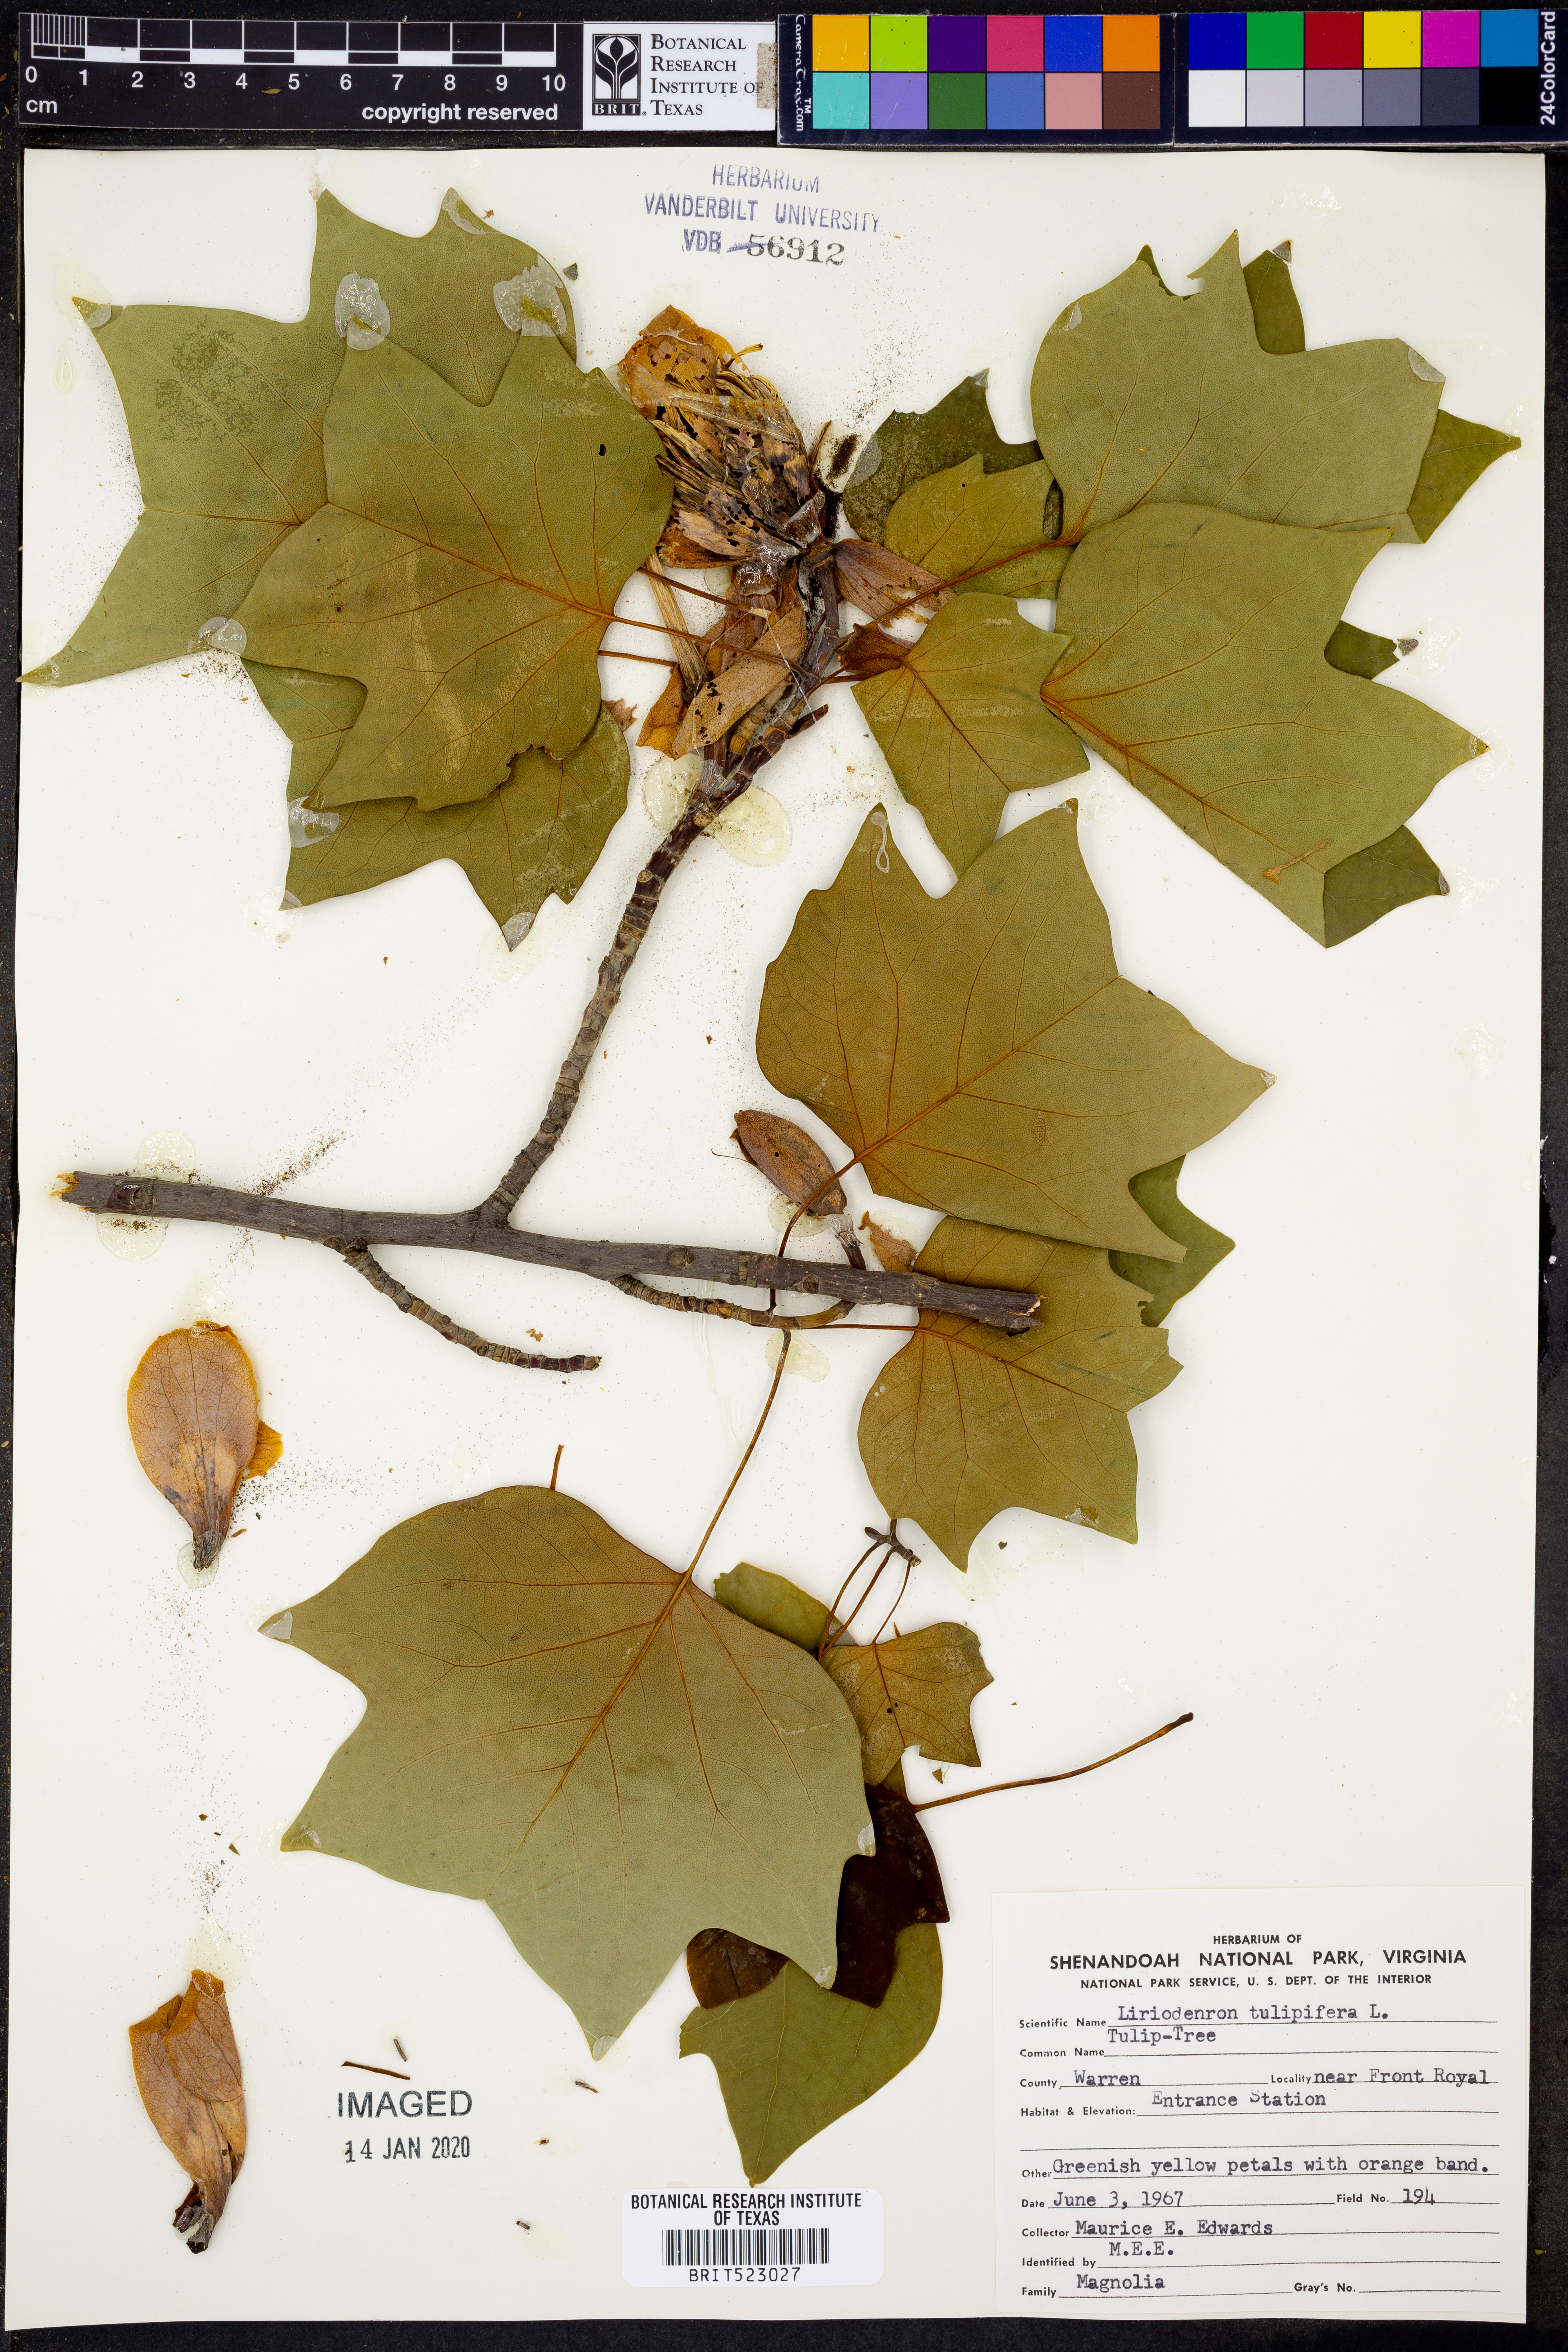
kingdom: Plantae
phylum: Tracheophyta
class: Magnoliopsida
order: Magnoliales
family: Magnoliaceae
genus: Liriodendron
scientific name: Liriodendron tulipifera
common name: Tulip tree
